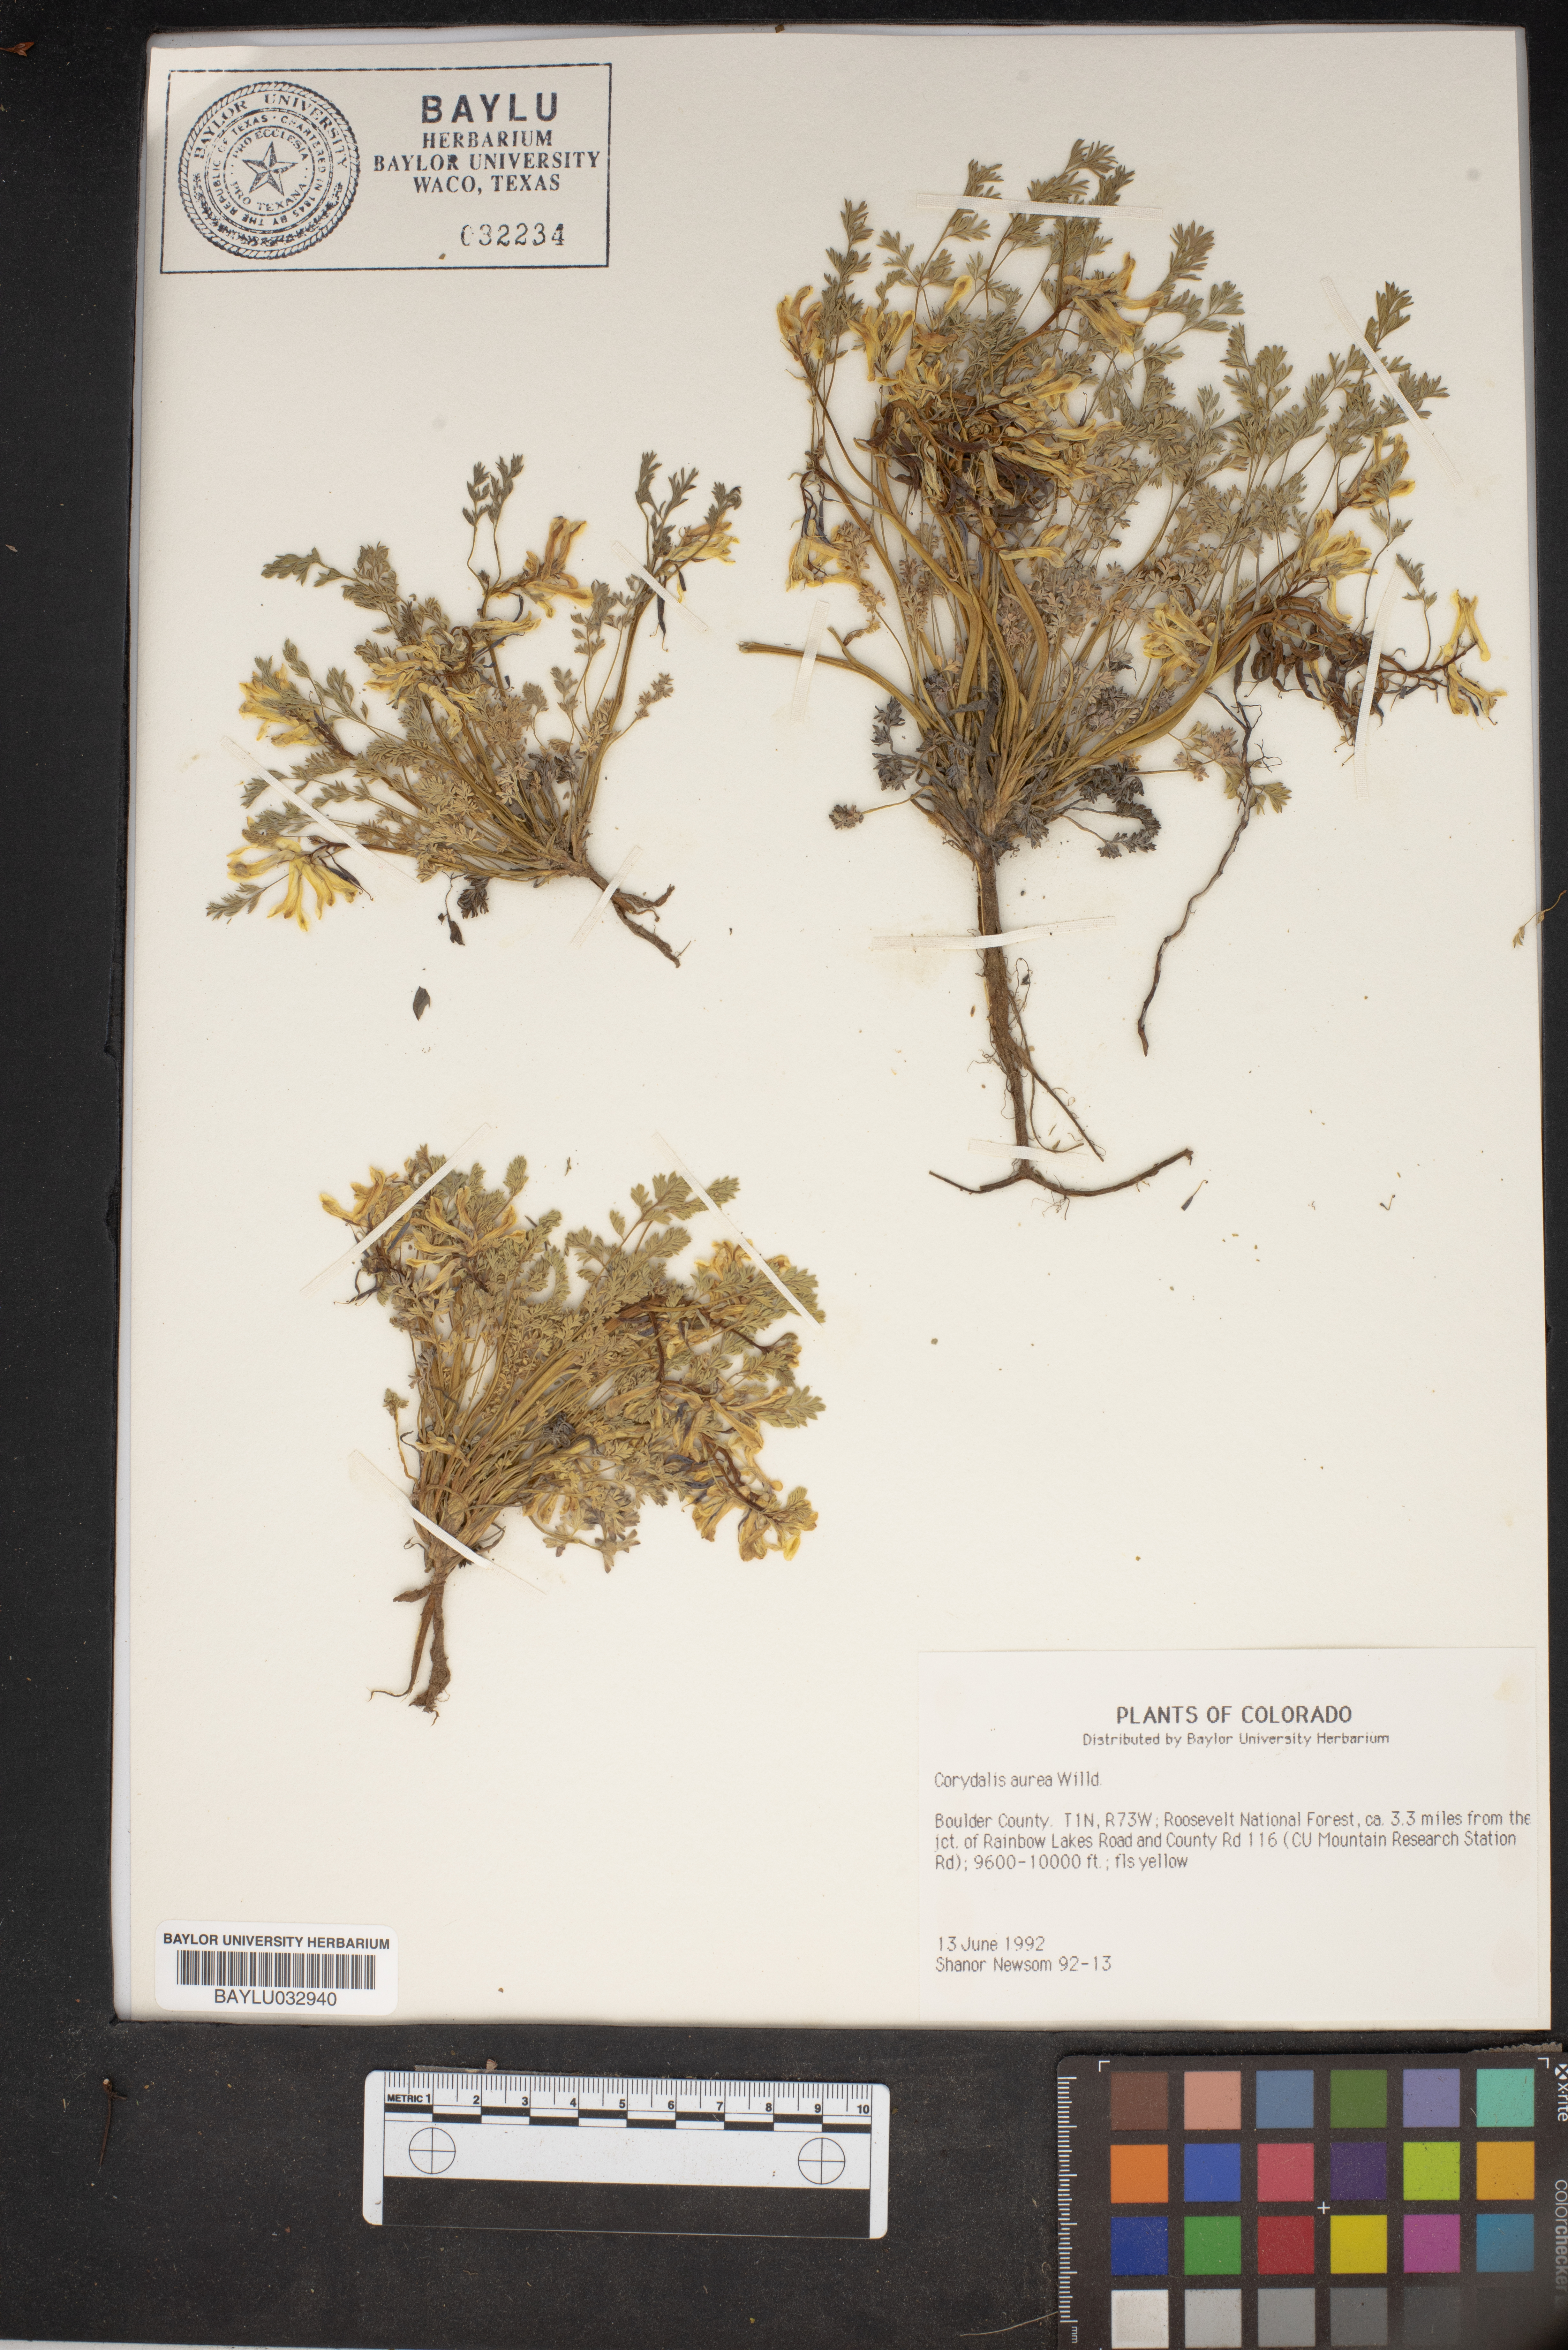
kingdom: Plantae
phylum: Tracheophyta
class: Magnoliopsida
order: Ranunculales
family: Papaveraceae
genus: Corydalis
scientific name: Corydalis aurea
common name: Golden corydalis
